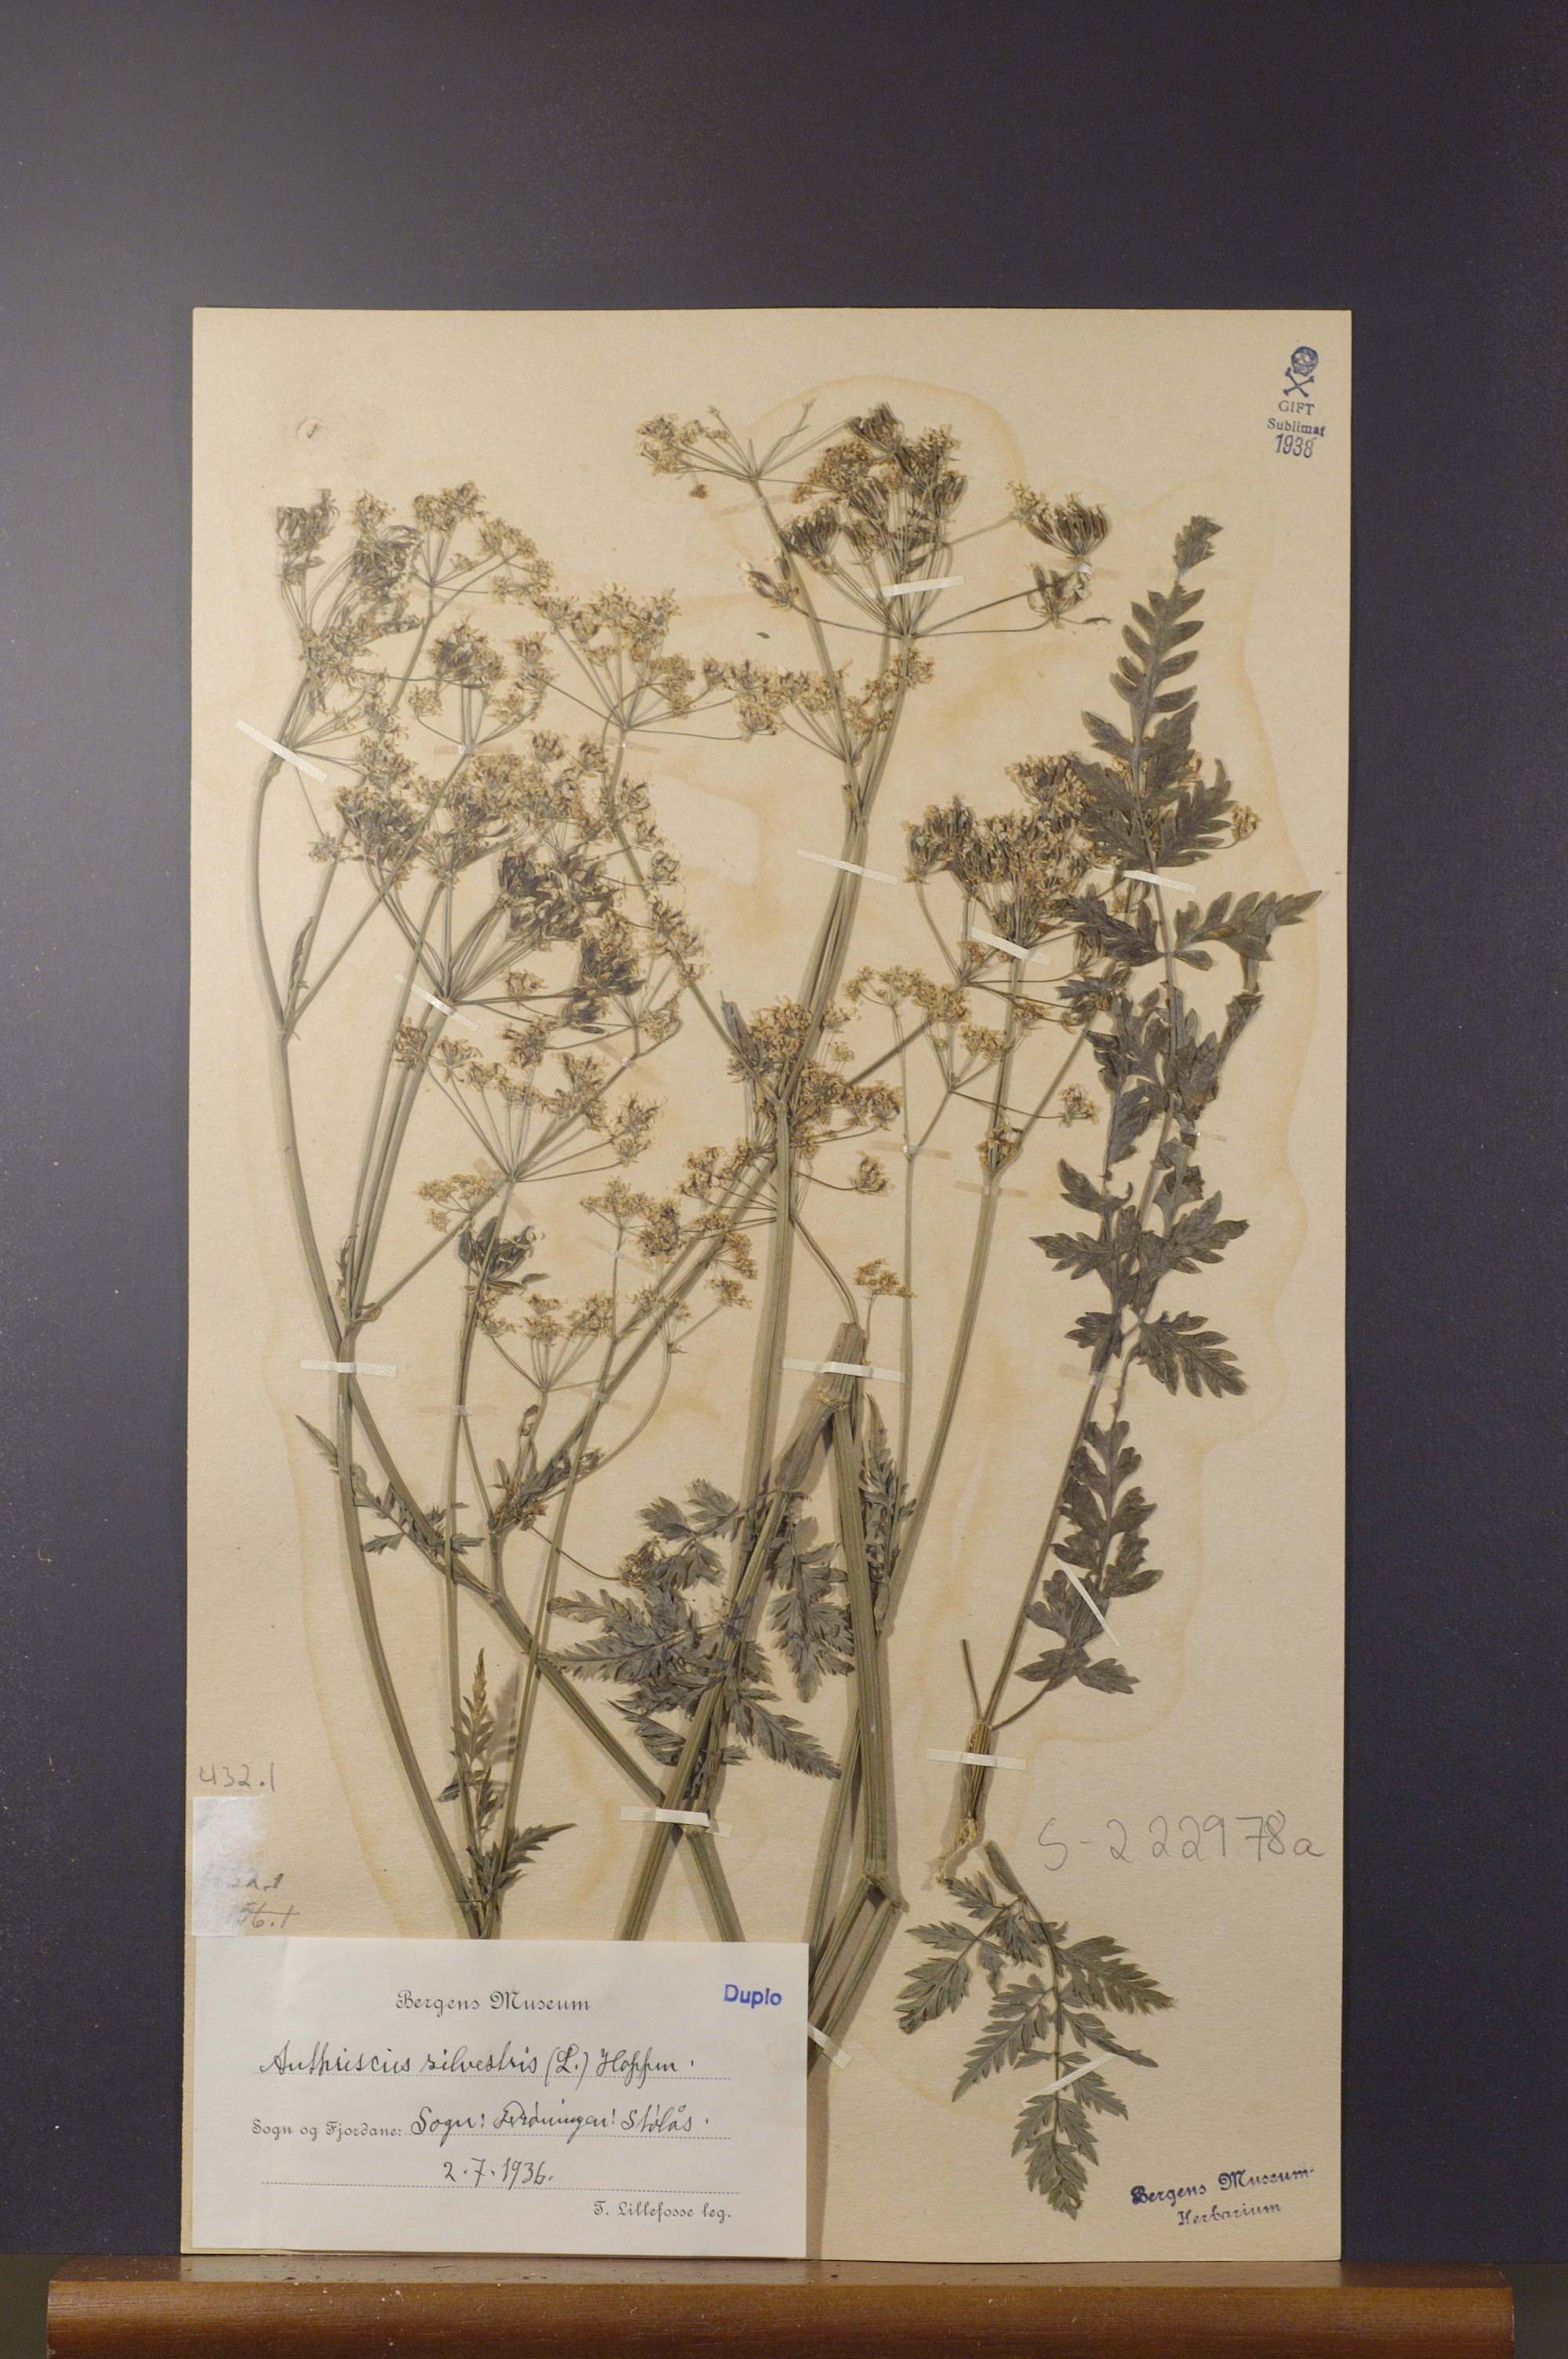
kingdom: Plantae
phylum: Tracheophyta
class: Magnoliopsida
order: Apiales
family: Apiaceae
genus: Anthriscus
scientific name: Anthriscus sylvestris
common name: Cow parsley
